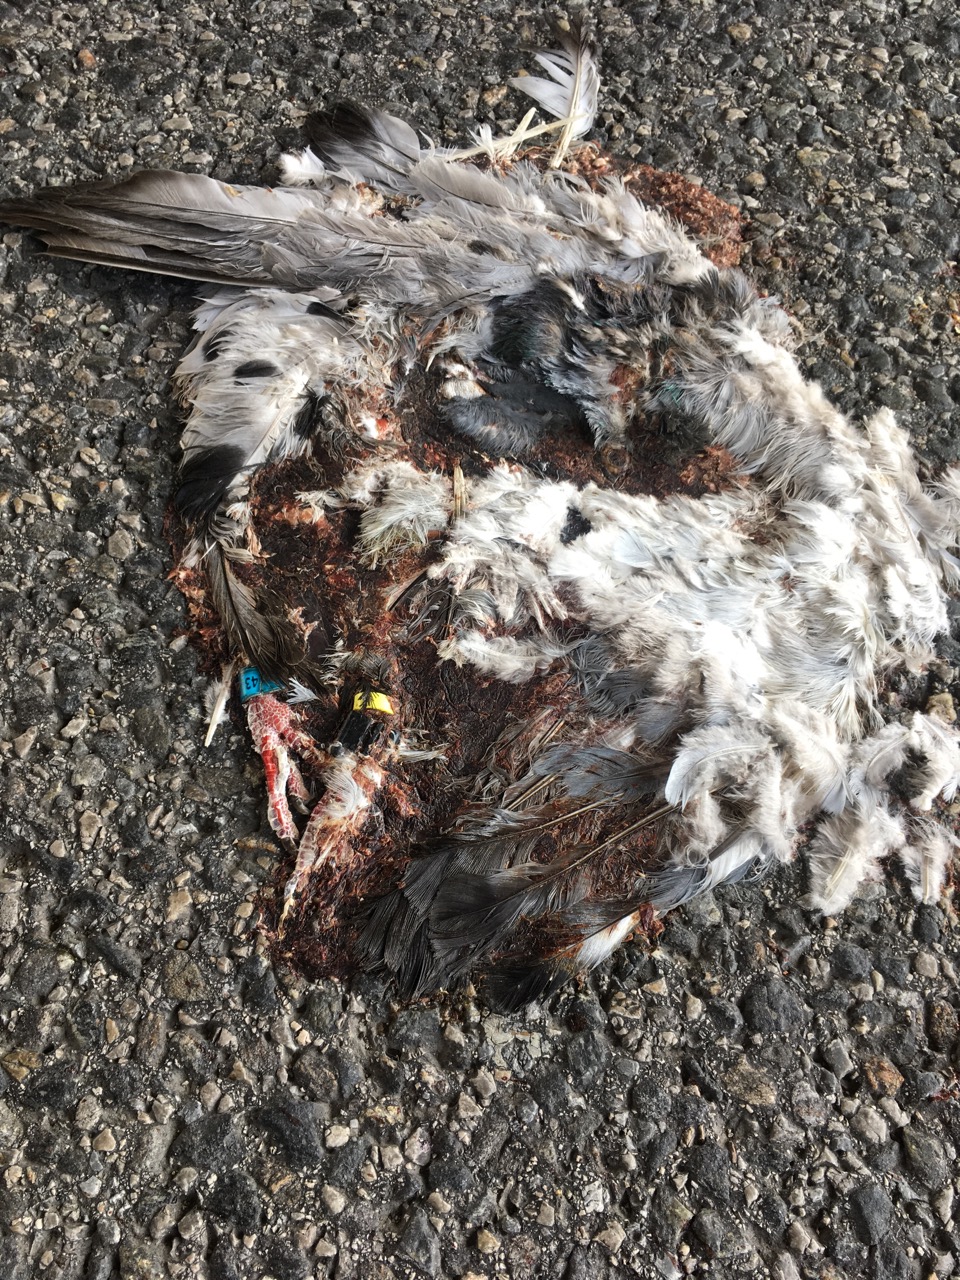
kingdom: Animalia
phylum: Chordata
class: Aves
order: Columbiformes
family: Columbidae
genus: Columba
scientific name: Columba livia
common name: Rock pigeon
